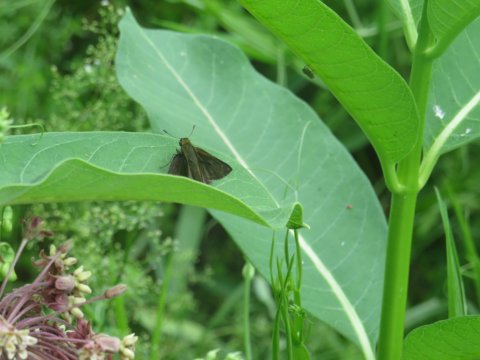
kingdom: Animalia
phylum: Arthropoda
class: Insecta
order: Lepidoptera
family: Hesperiidae
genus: Euphyes
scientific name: Euphyes vestris
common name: Dun Skipper
